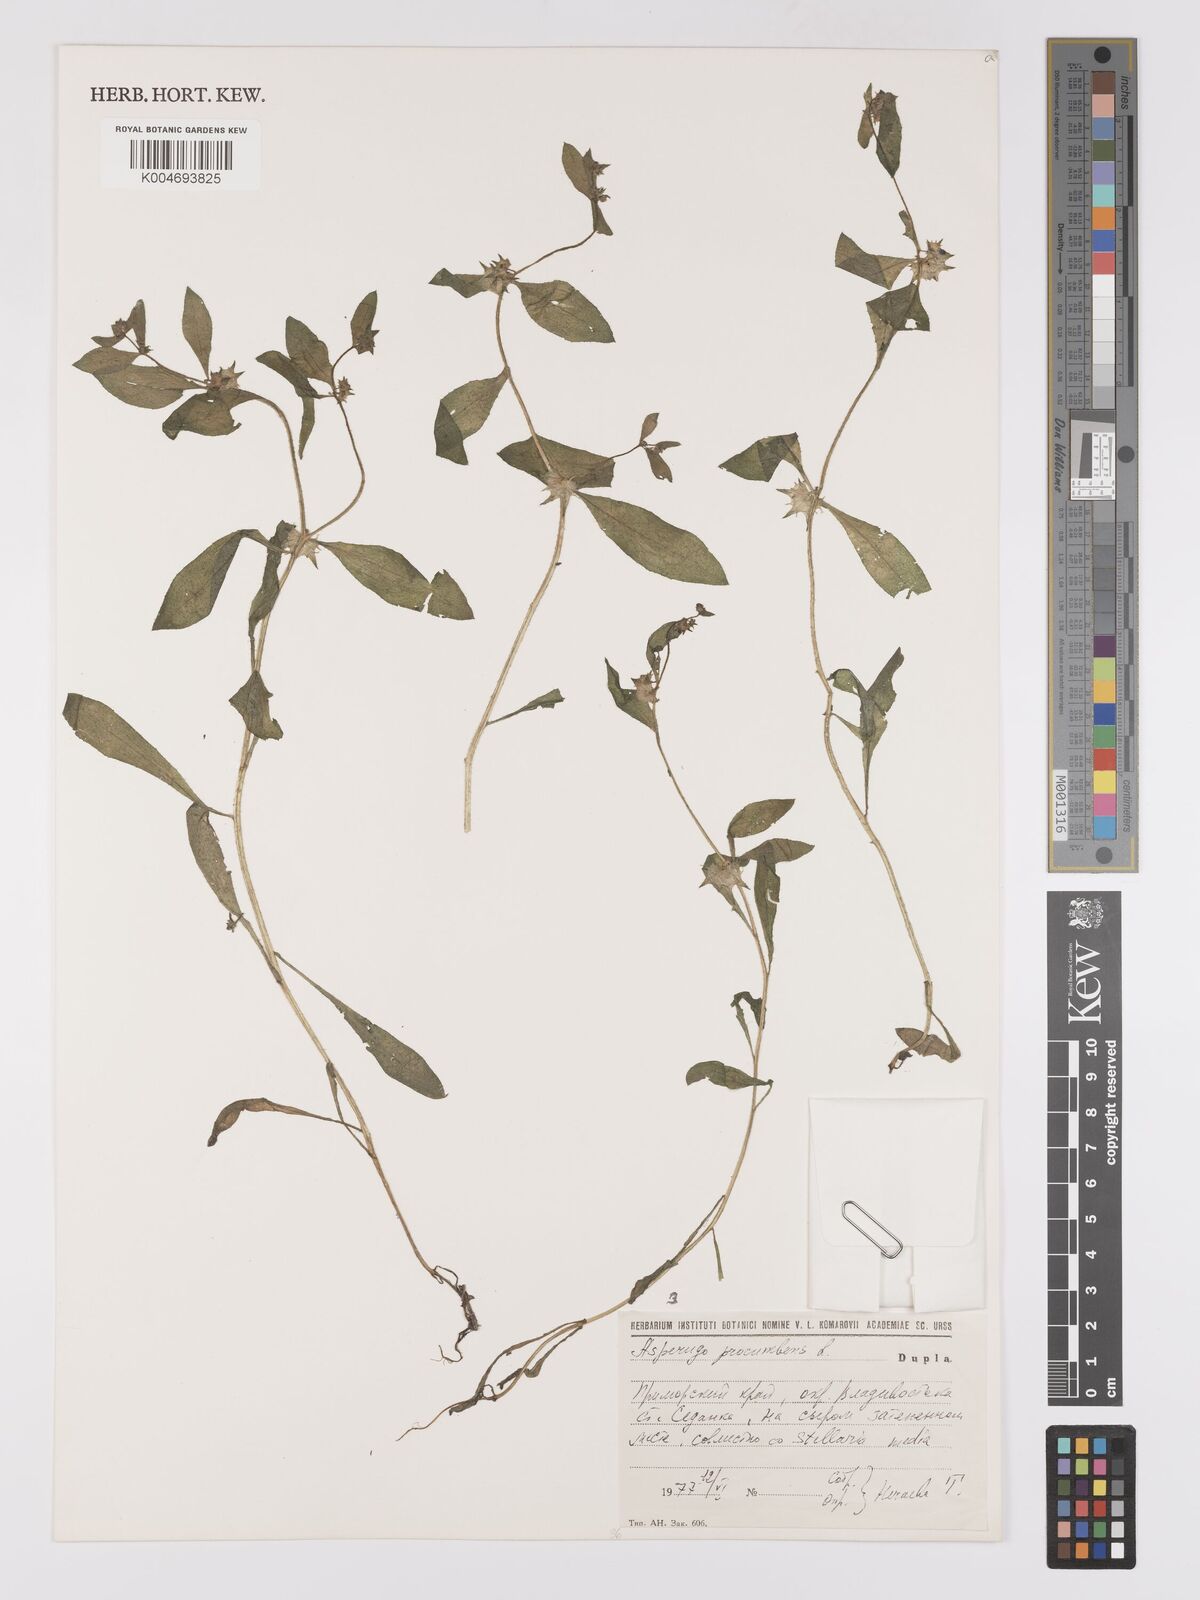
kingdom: Plantae
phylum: Tracheophyta
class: Magnoliopsida
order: Boraginales
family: Boraginaceae
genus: Asperugo
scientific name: Asperugo procumbens
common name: Madwort
